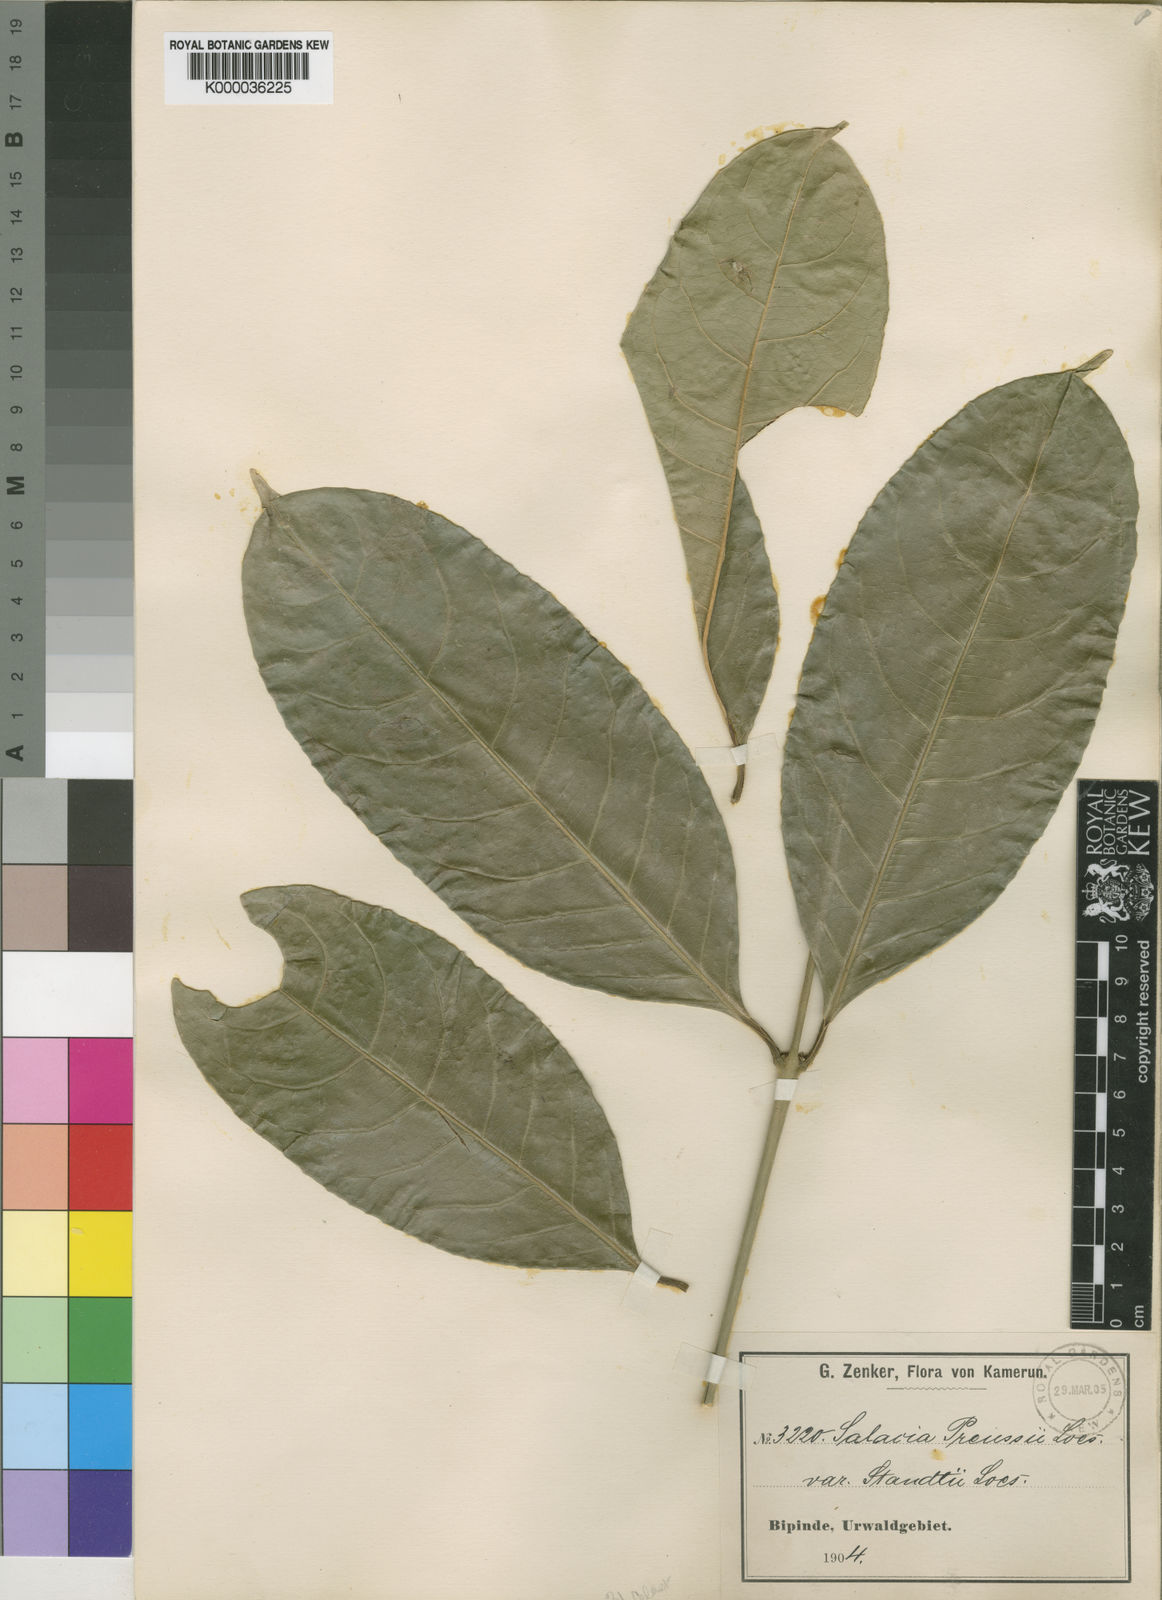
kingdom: Plantae
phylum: Tracheophyta
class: Magnoliopsida
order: Celastrales
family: Celastraceae
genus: Salacia
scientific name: Salacia preussii
